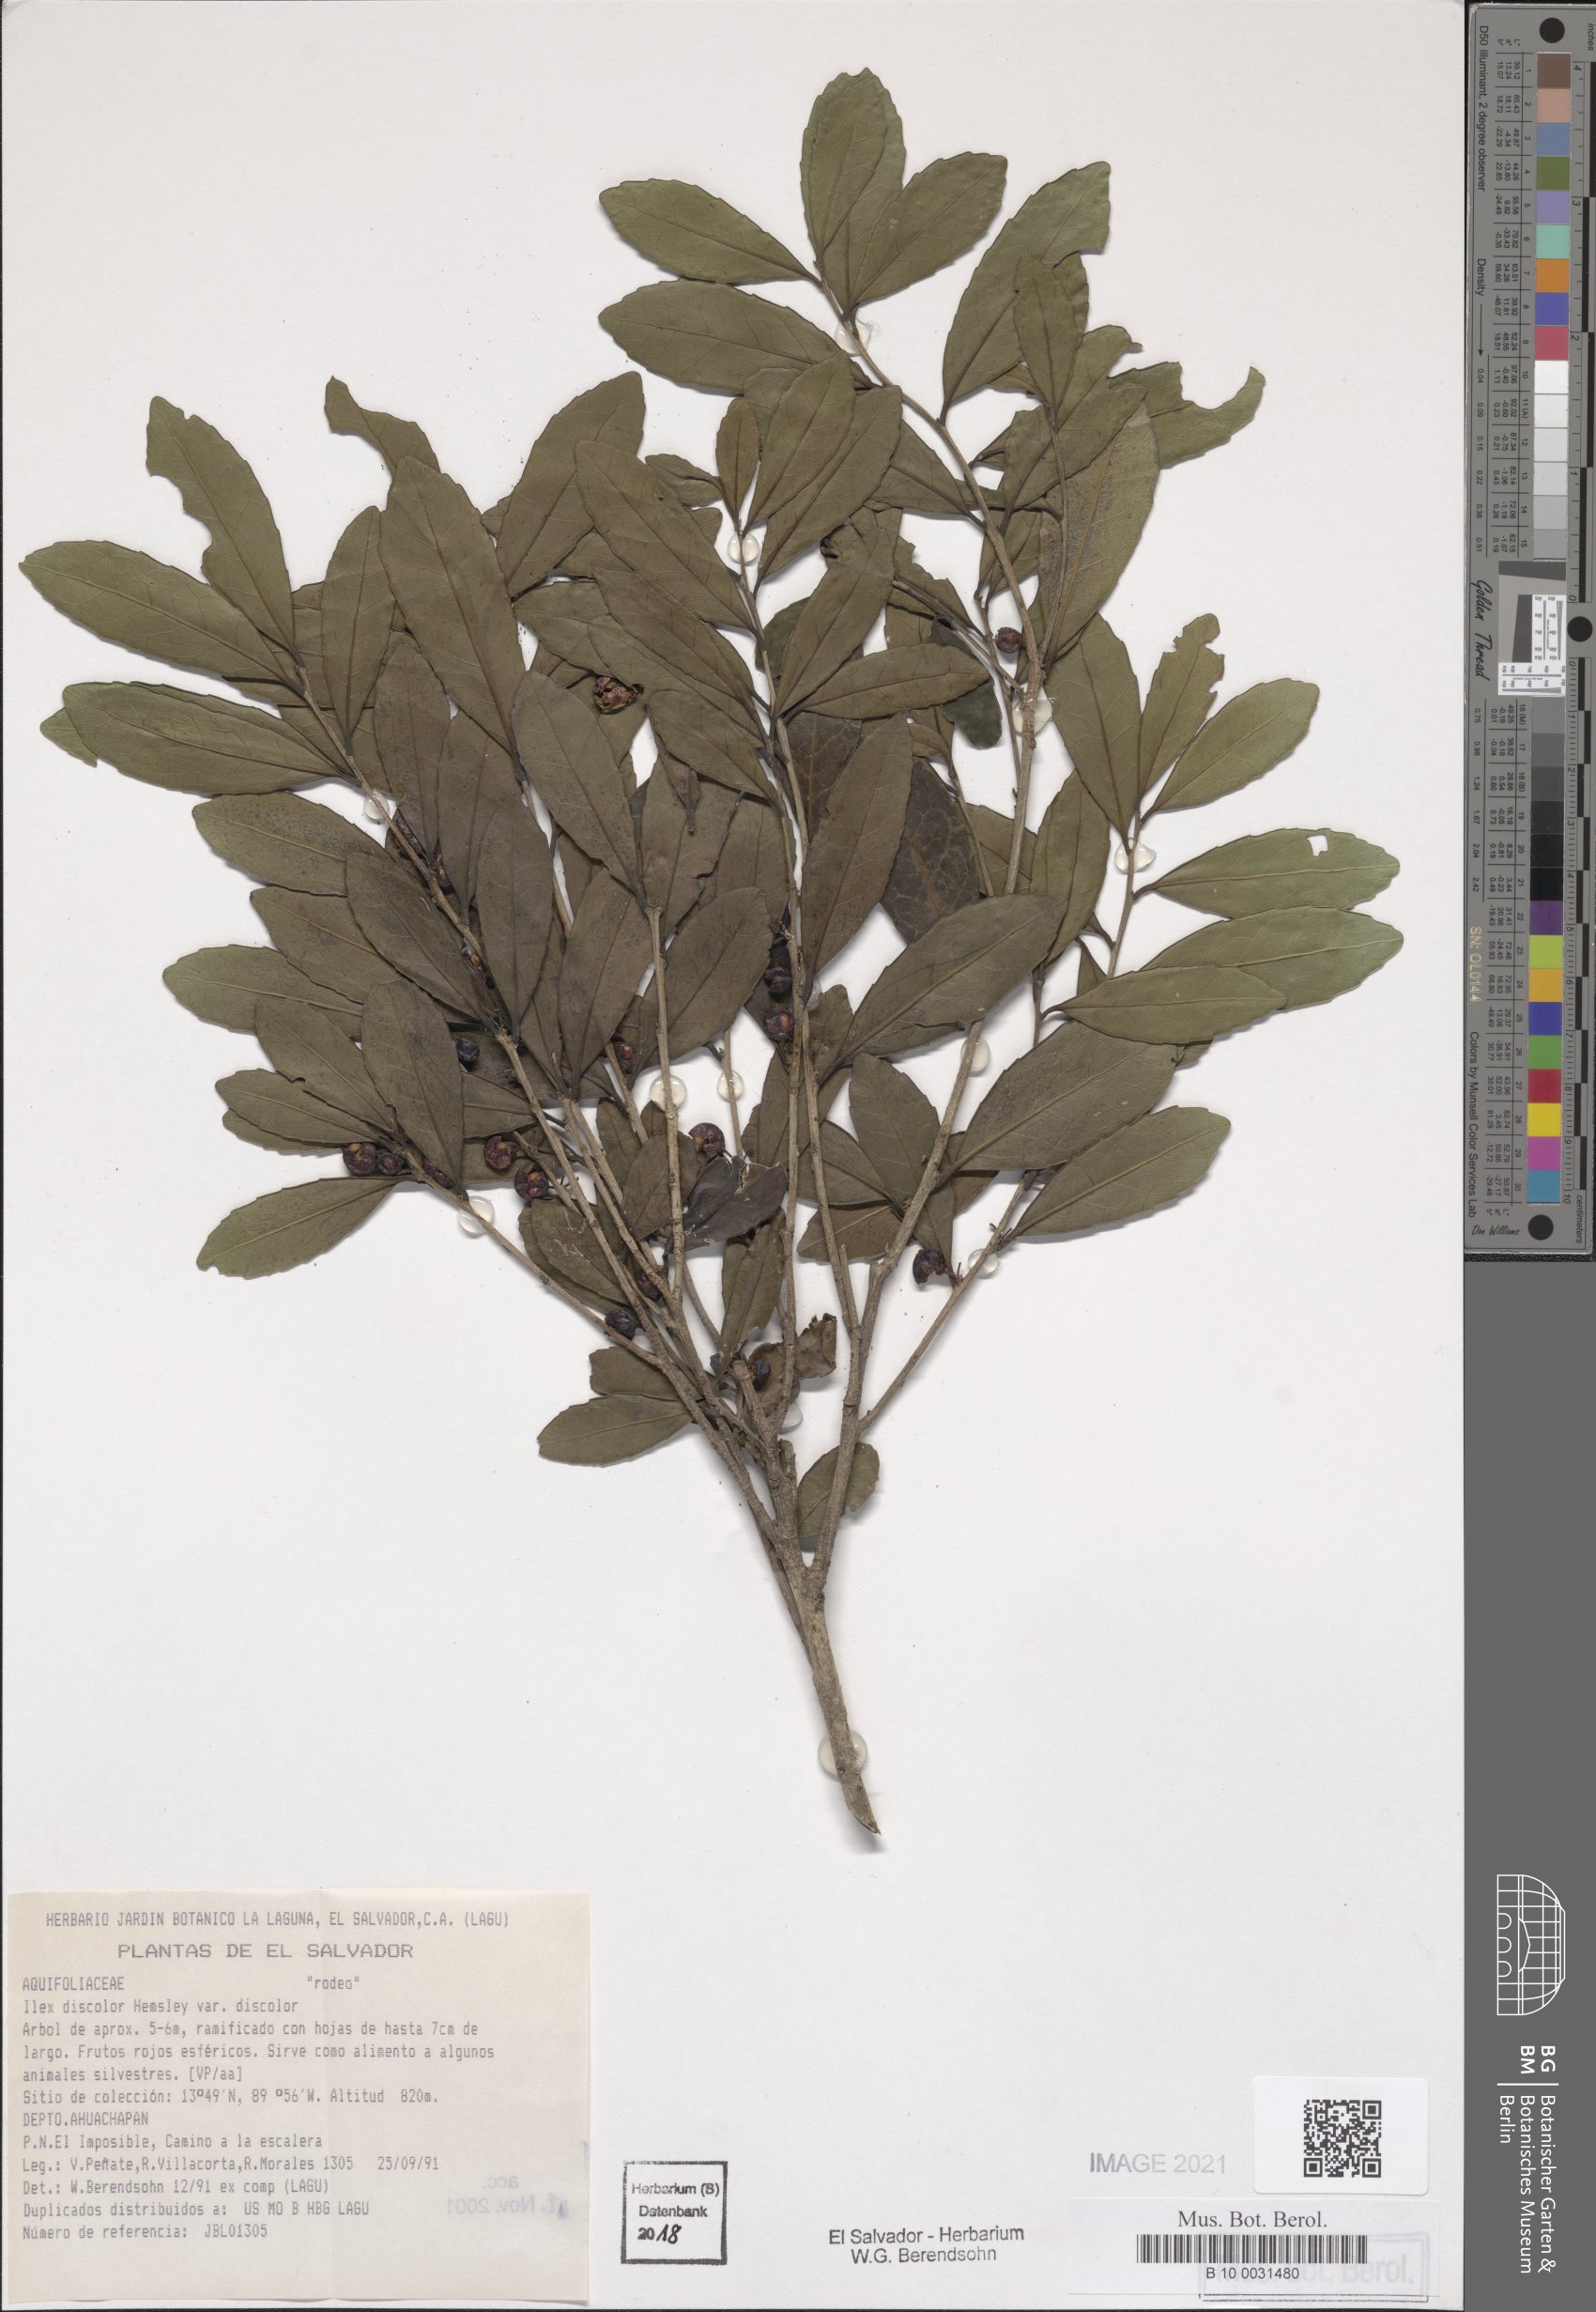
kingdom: Plantae
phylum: Tracheophyta
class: Magnoliopsida
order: Aquifoliales
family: Aquifoliaceae
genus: Ilex
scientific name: Ilex discolor
